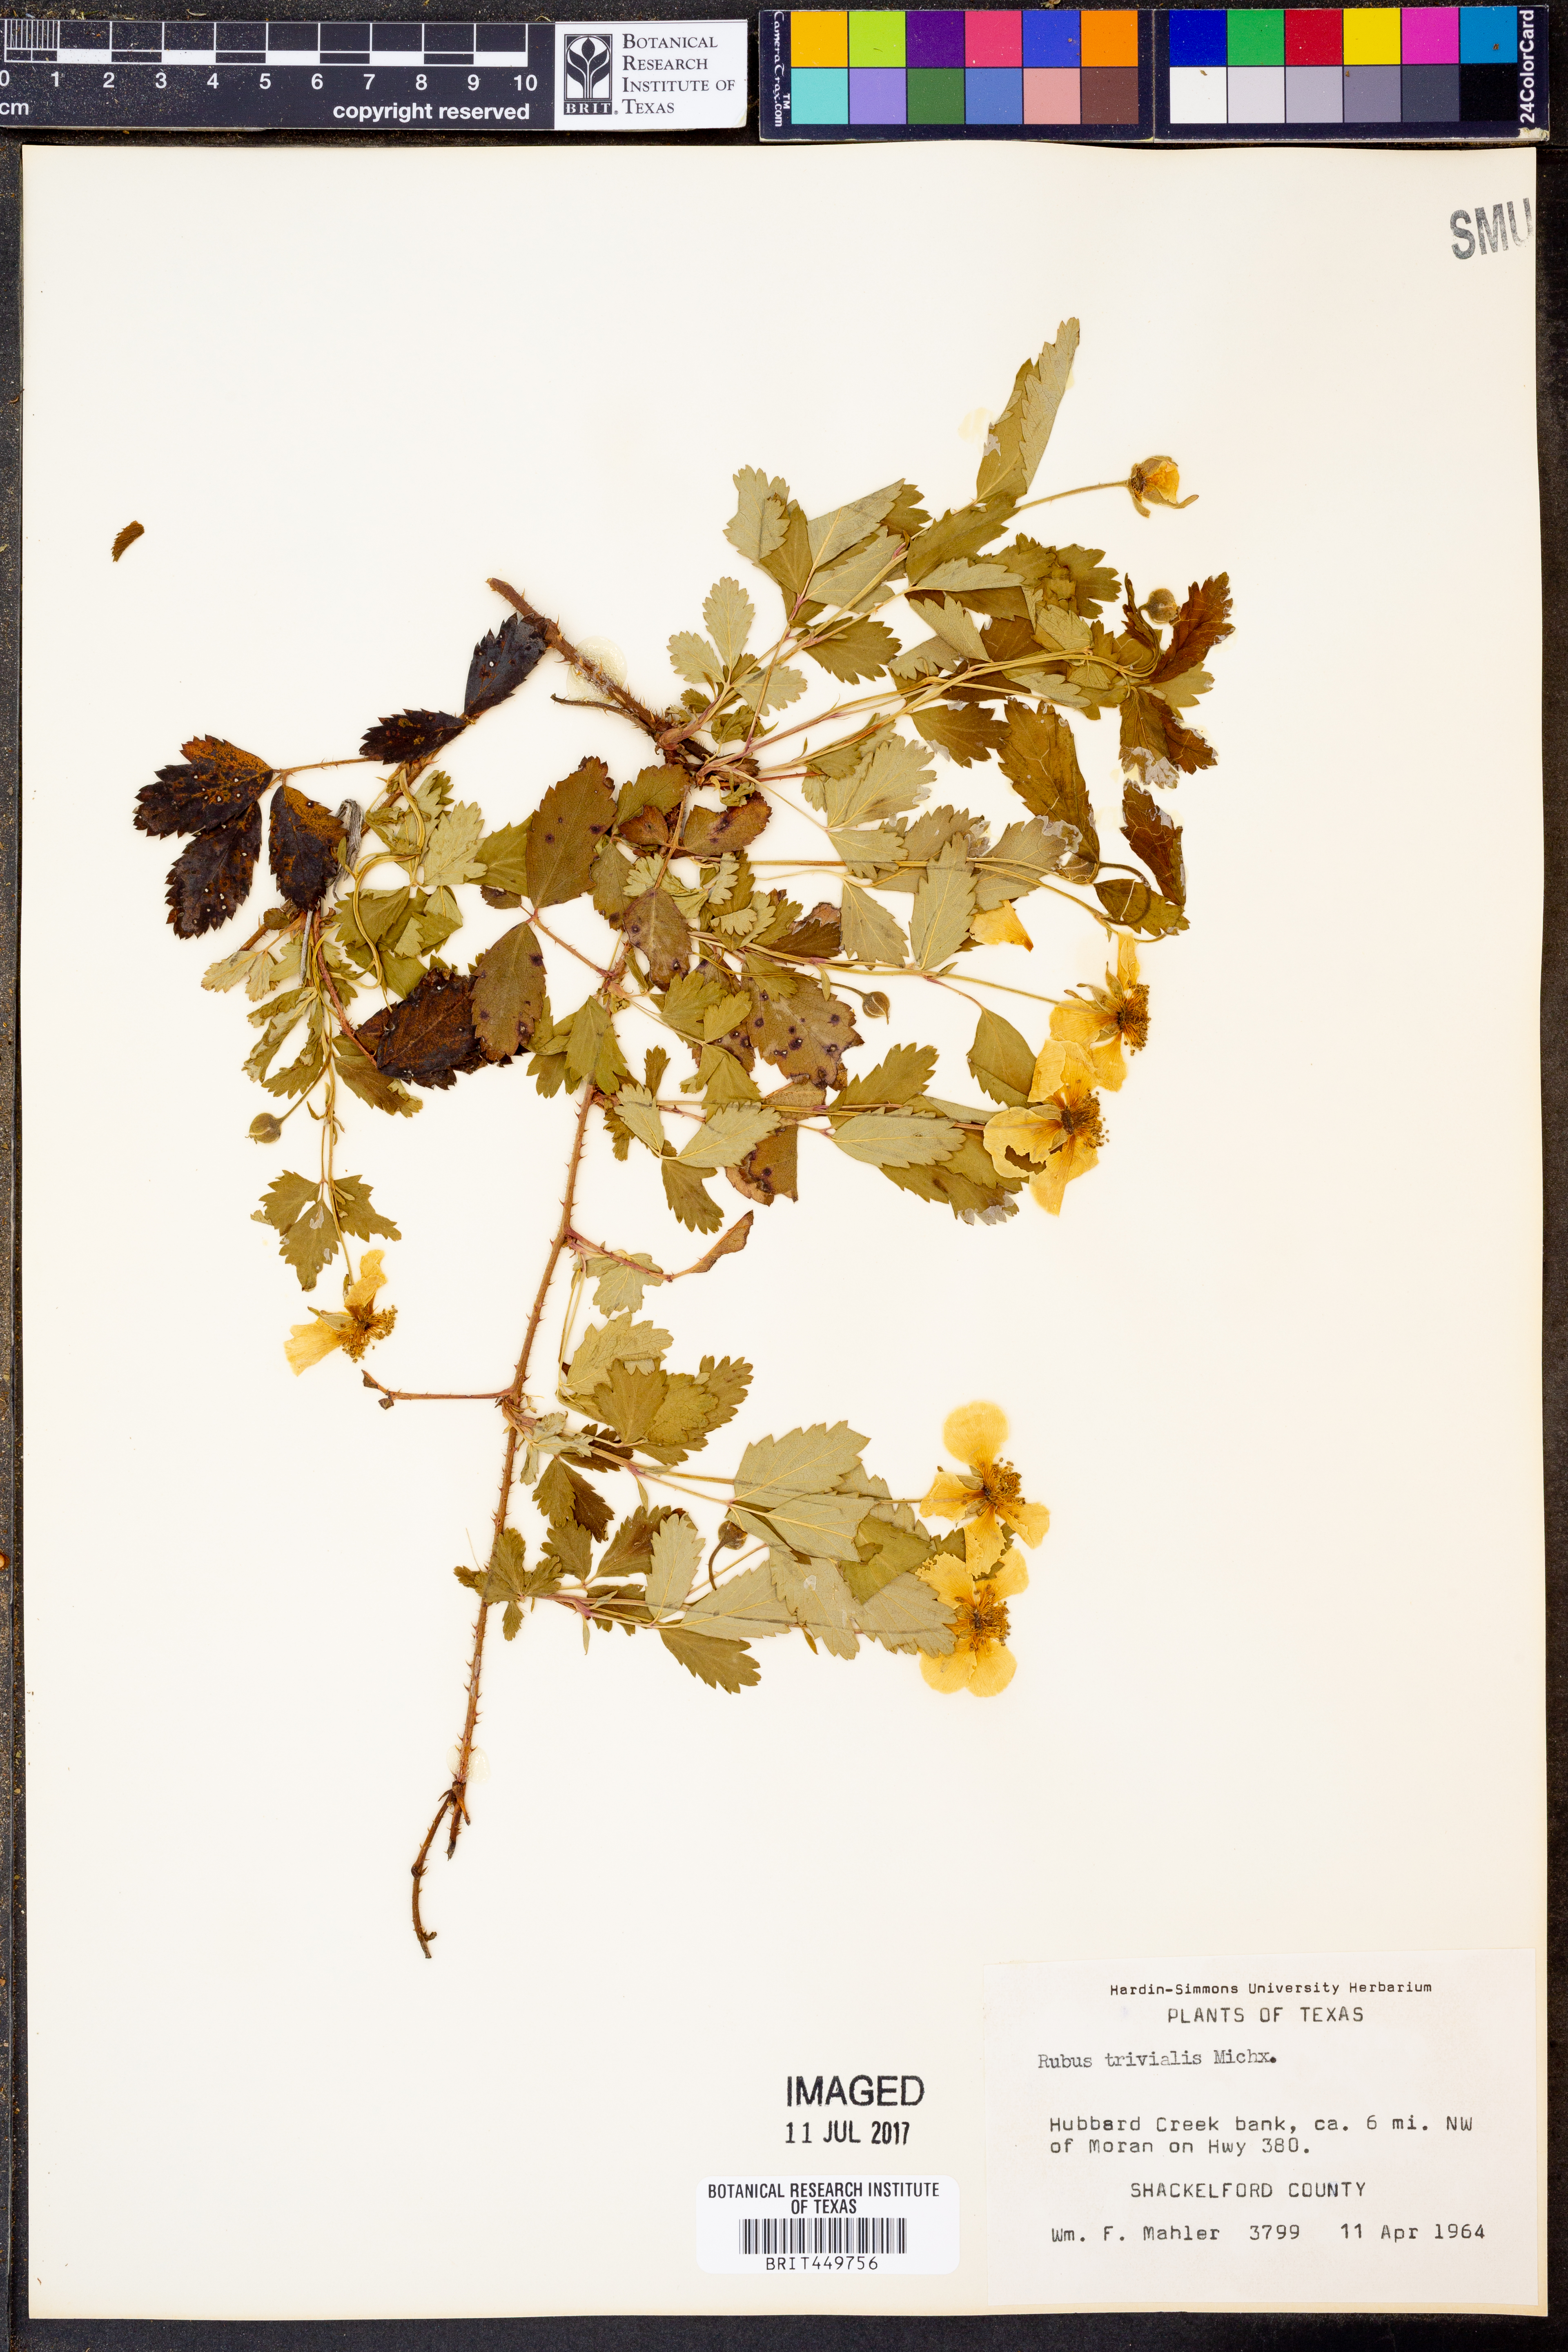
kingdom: Plantae
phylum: Tracheophyta
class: Magnoliopsida
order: Rosales
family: Rosaceae
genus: Rubus
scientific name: Rubus trivialis
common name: Southern dewberry
